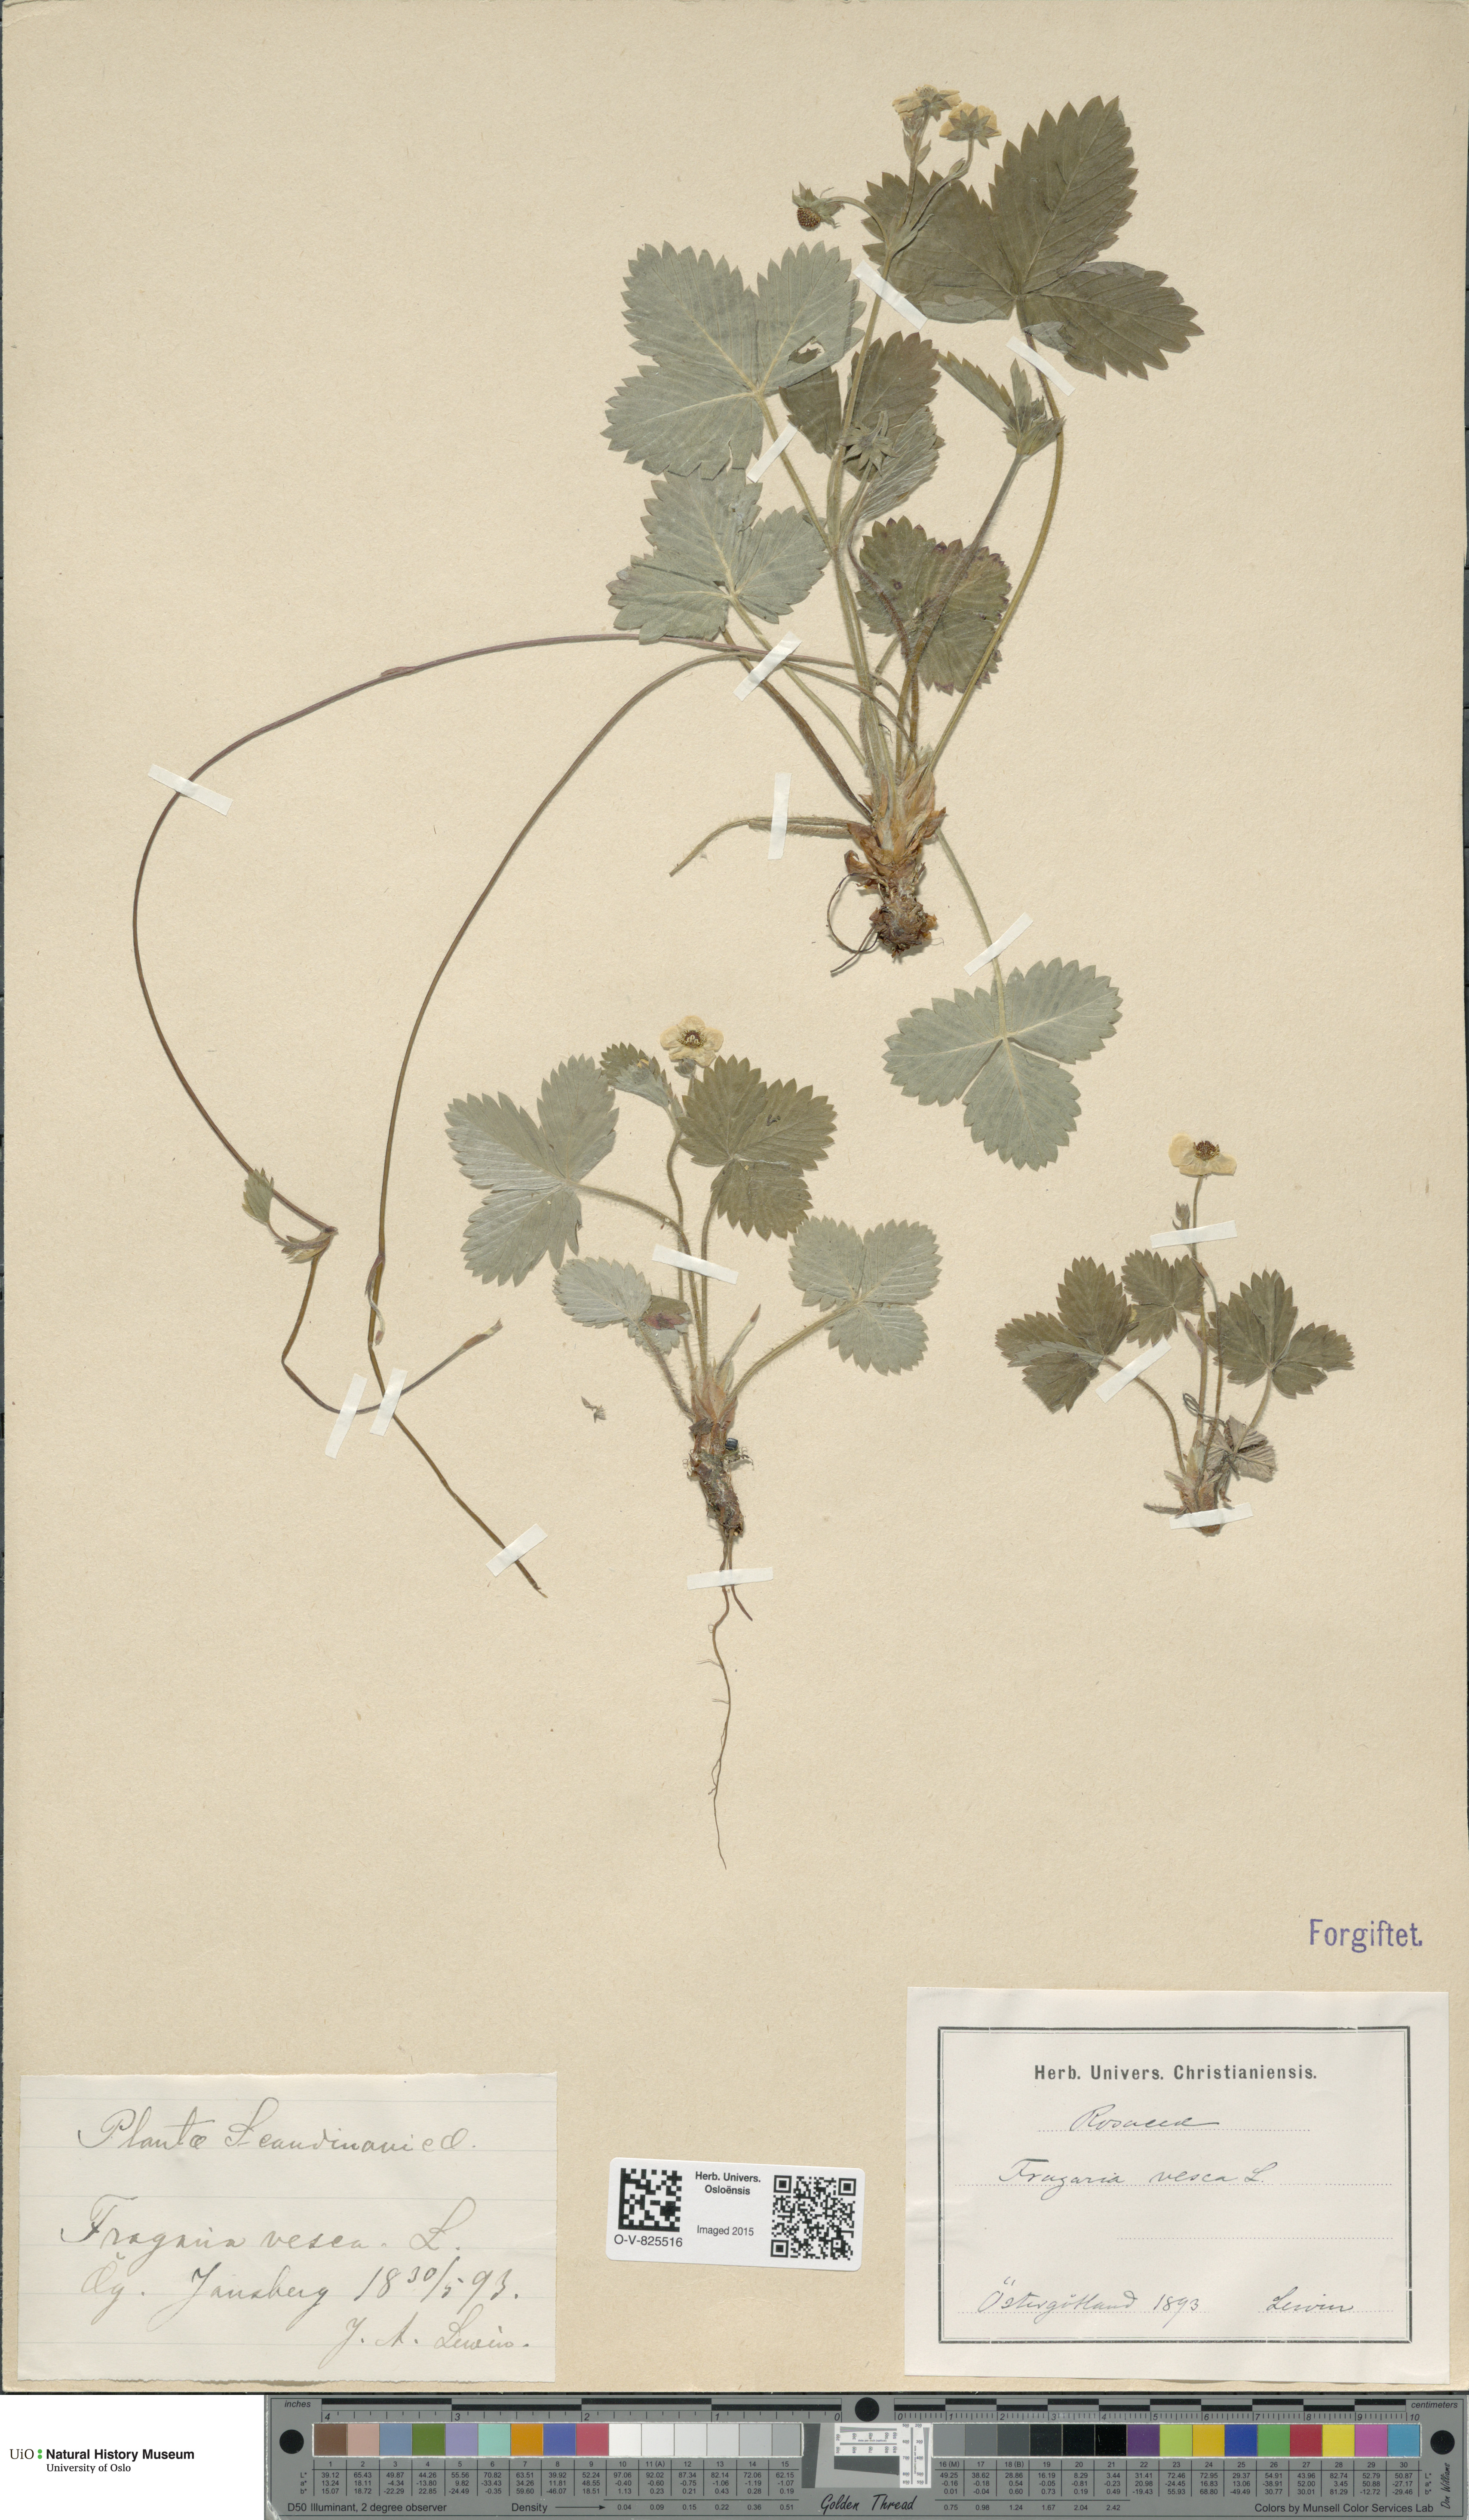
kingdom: Plantae
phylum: Tracheophyta
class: Magnoliopsida
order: Rosales
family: Rosaceae
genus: Fragaria
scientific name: Fragaria vesca
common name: Wild strawberry
